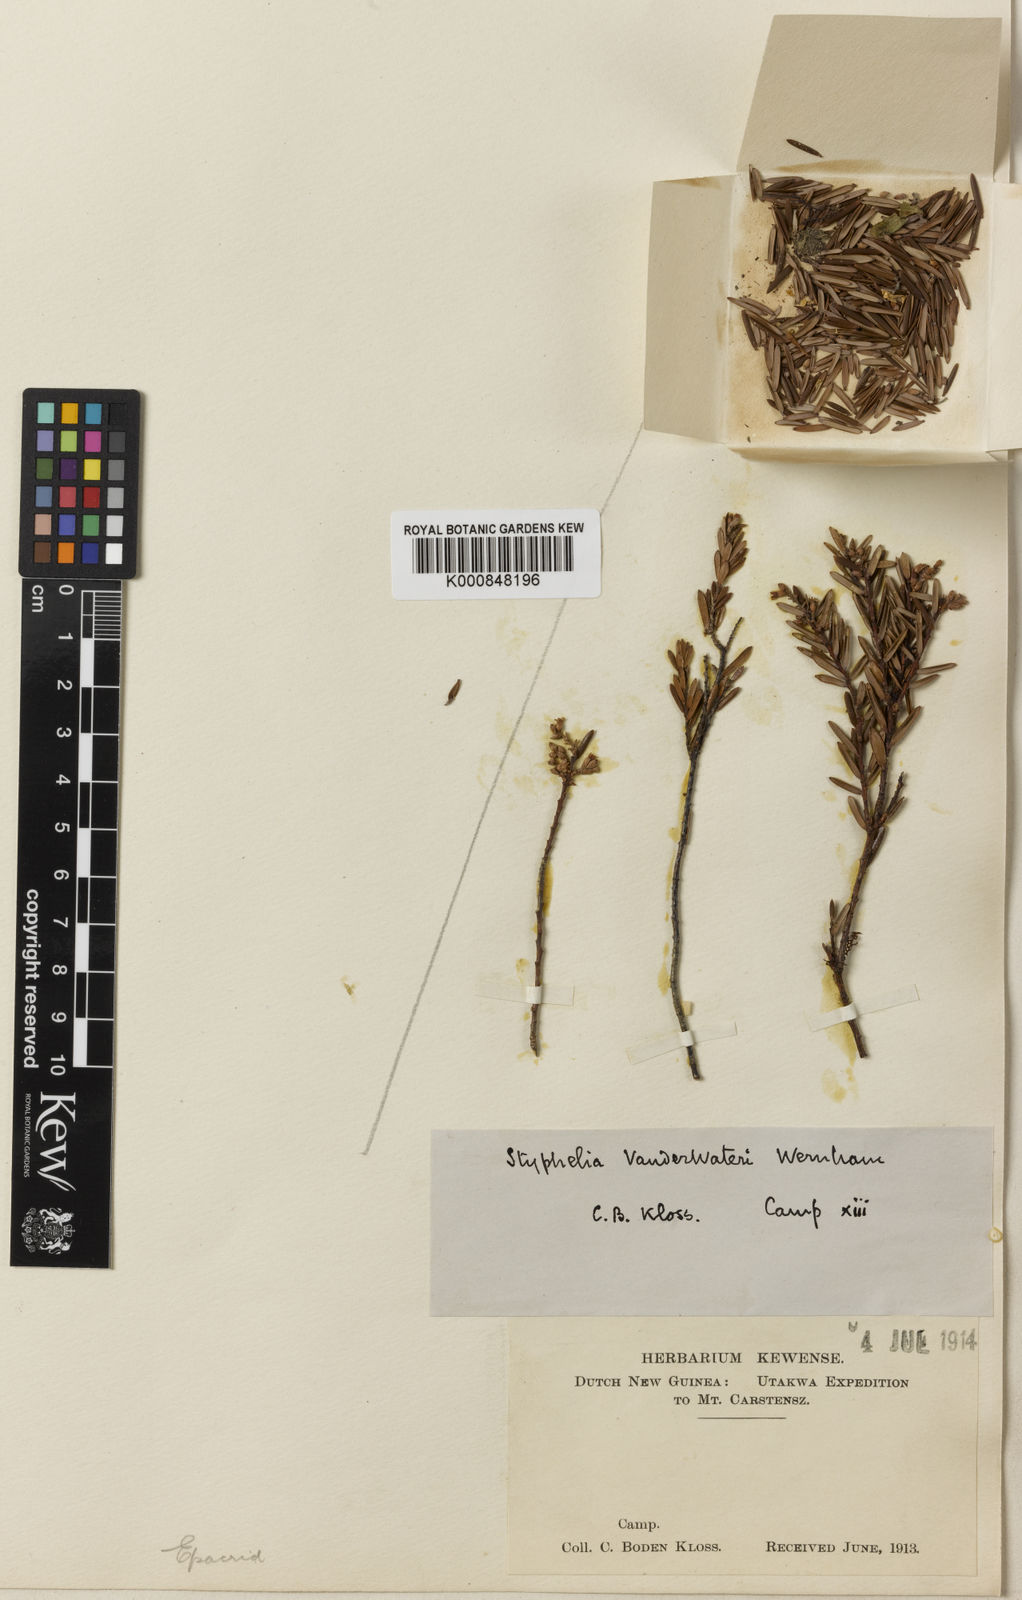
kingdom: Plantae
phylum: Tracheophyta
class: Magnoliopsida
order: Ericales
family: Ericaceae
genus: Styphelia
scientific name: Styphelia
